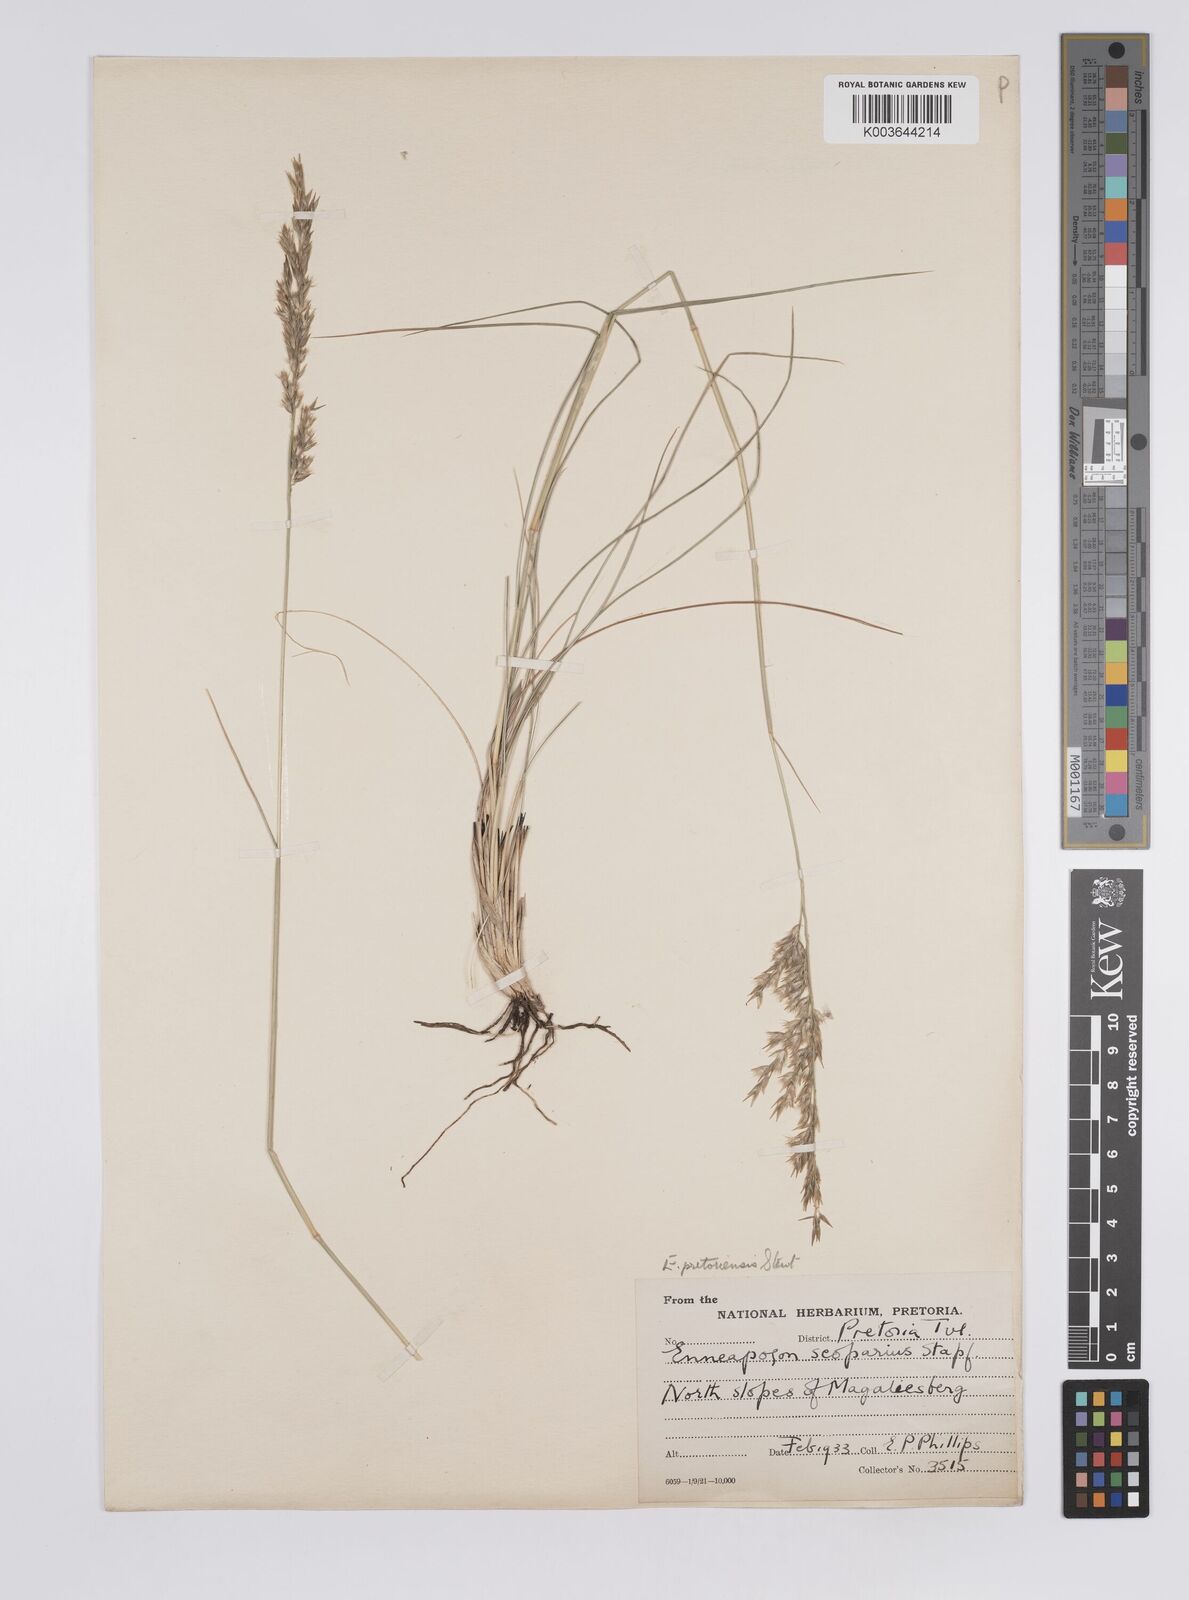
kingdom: Plantae
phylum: Tracheophyta
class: Liliopsida
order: Poales
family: Poaceae
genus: Enneapogon
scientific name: Enneapogon pretoriensis
